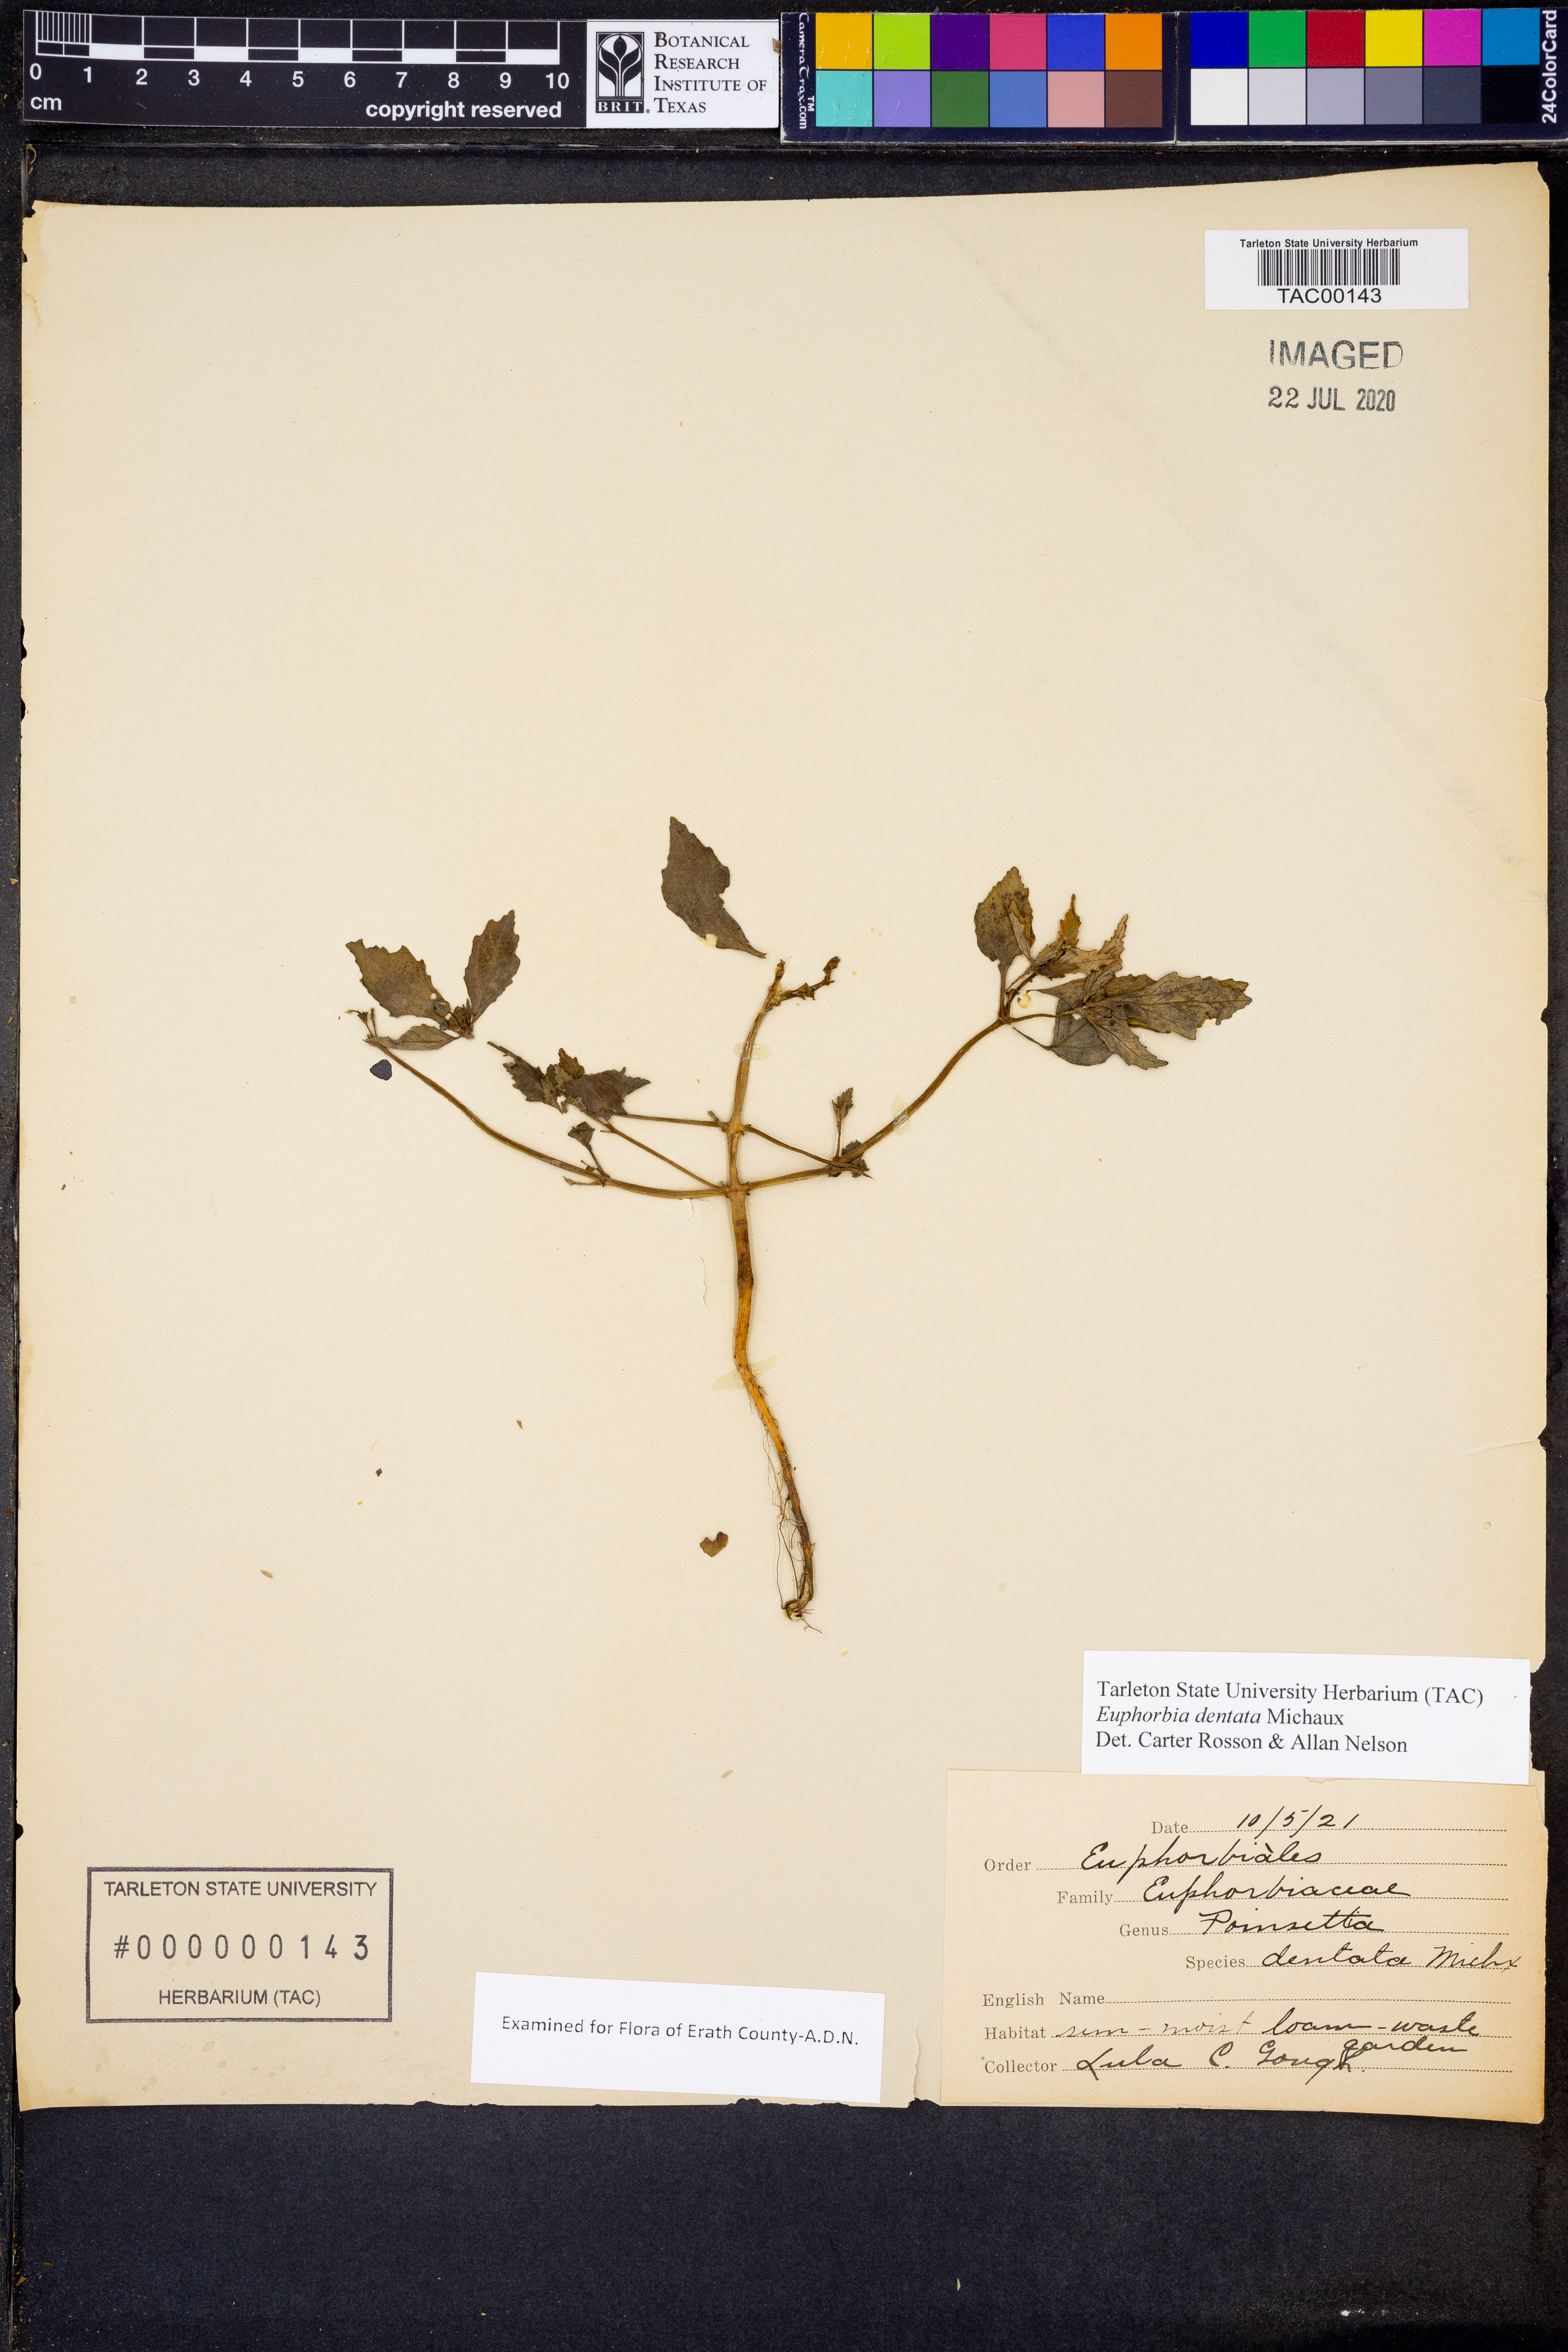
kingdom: Plantae
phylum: Tracheophyta
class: Magnoliopsida
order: Malpighiales
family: Euphorbiaceae
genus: Euphorbia
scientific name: Euphorbia dentata
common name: Dentate spurge
